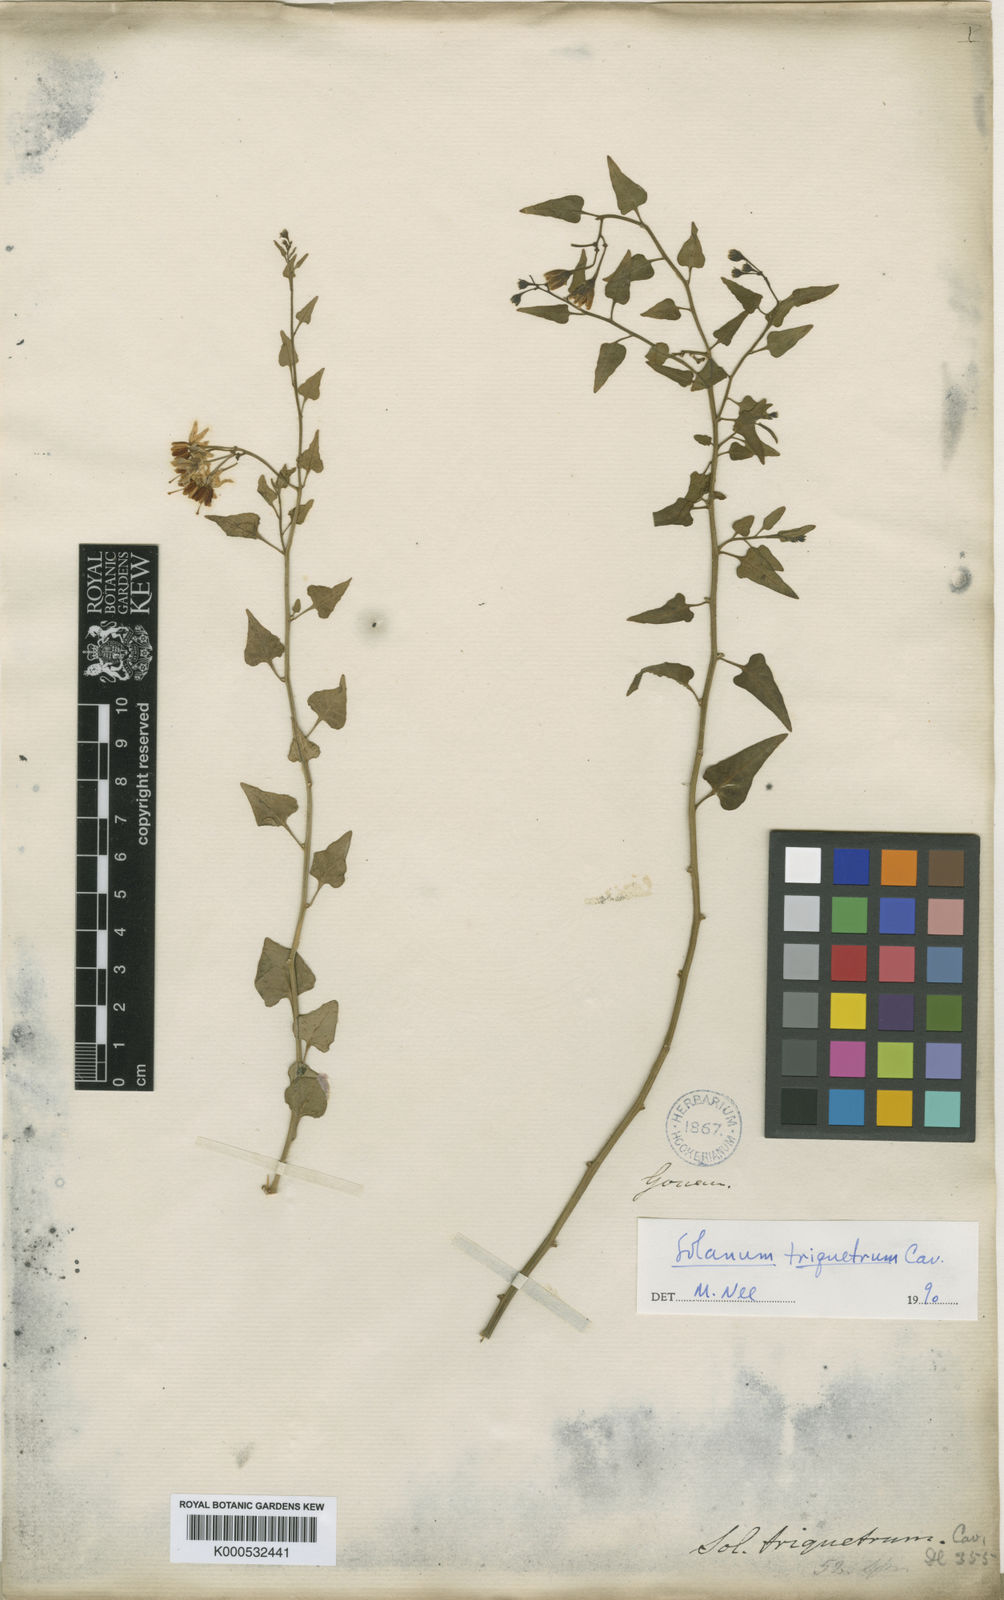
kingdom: Plantae
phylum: Tracheophyta
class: Magnoliopsida
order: Solanales
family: Solanaceae
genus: Solanum
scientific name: Solanum triquetrum
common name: Texas nightshade
